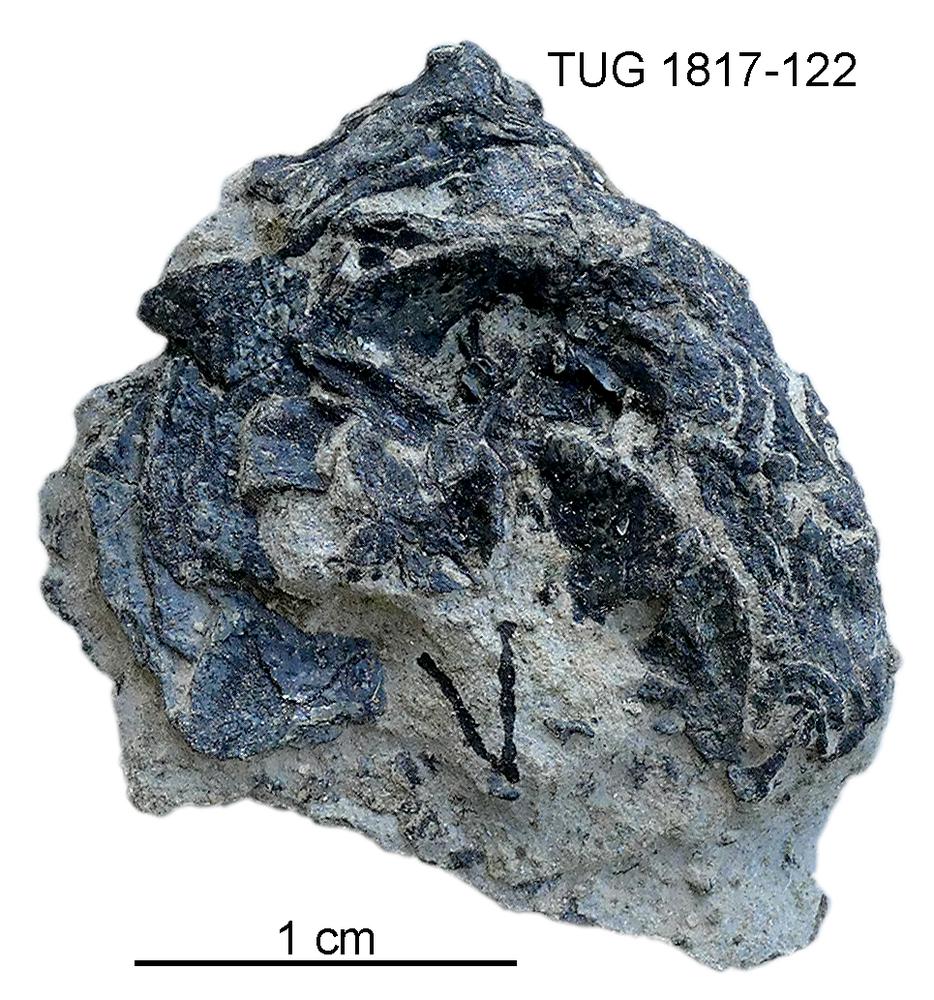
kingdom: Animalia
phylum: Chordata
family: Coccosteidae
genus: Millerosteus
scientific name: Millerosteus minor
